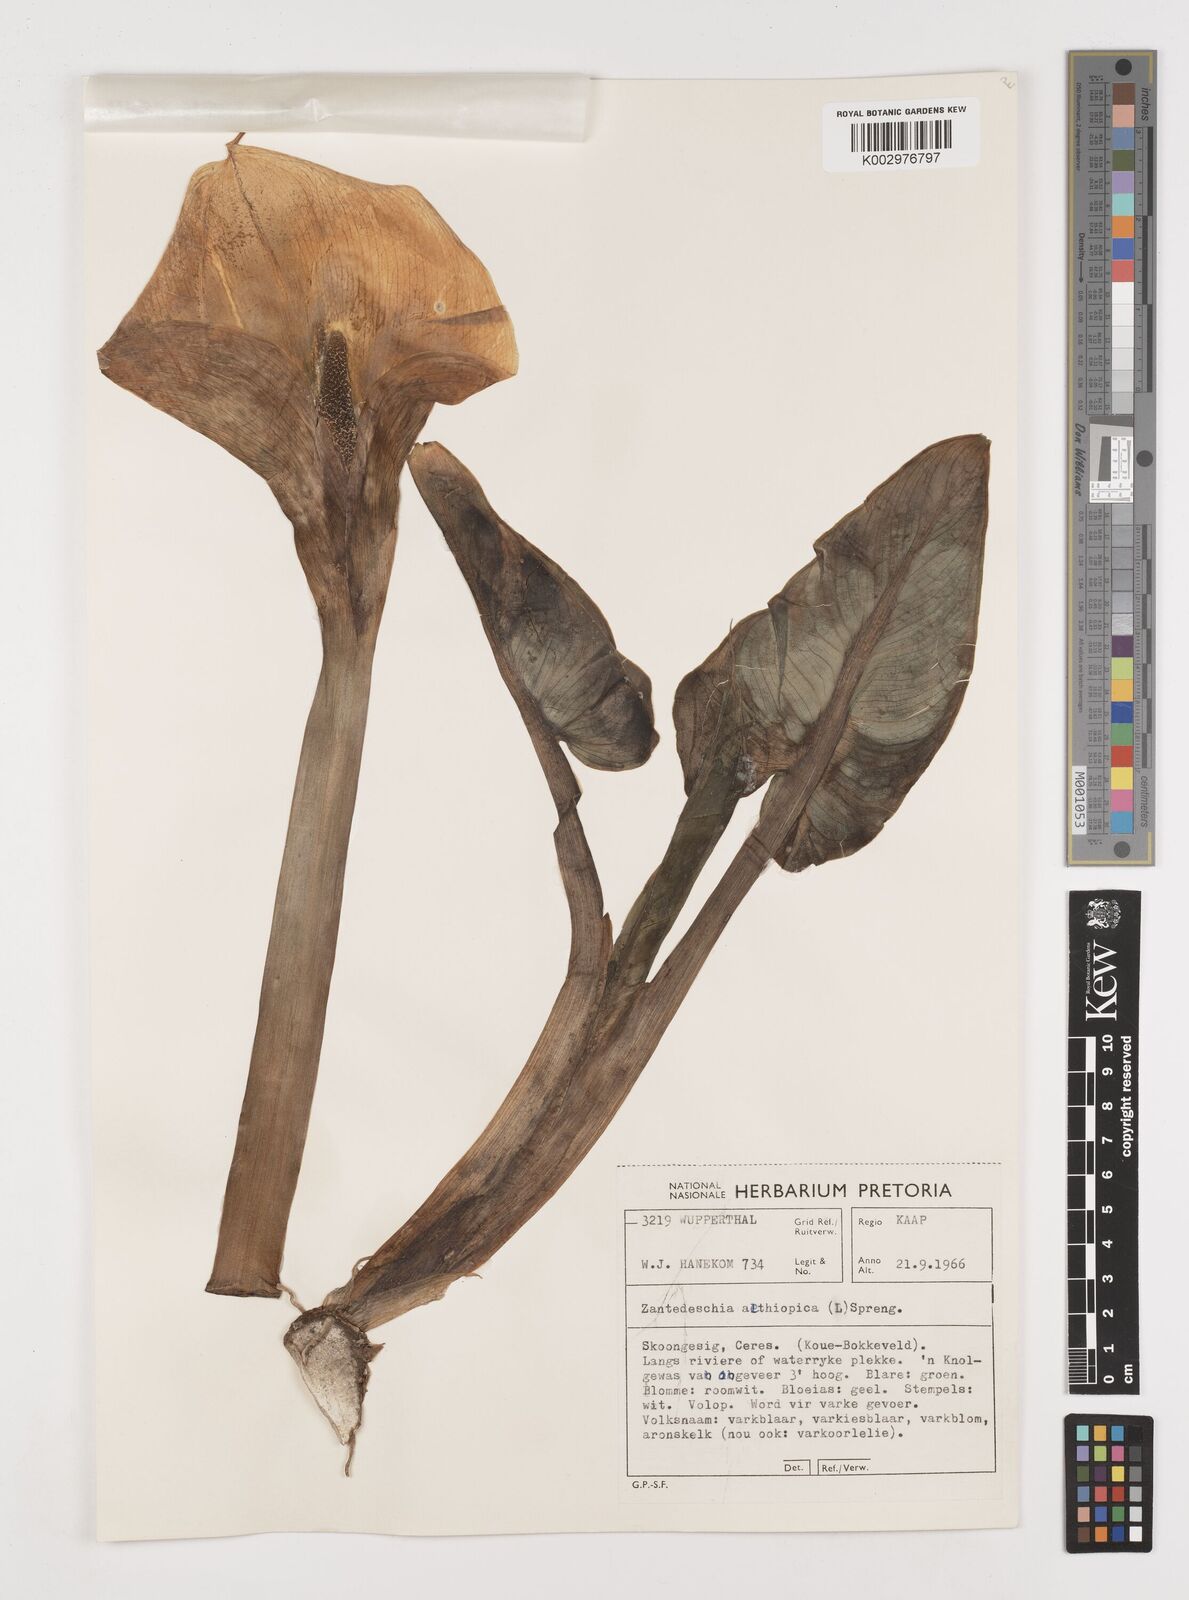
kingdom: Plantae
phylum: Tracheophyta
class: Liliopsida
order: Alismatales
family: Araceae
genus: Zantedeschia
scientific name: Zantedeschia aethiopica
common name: Altar-lily
